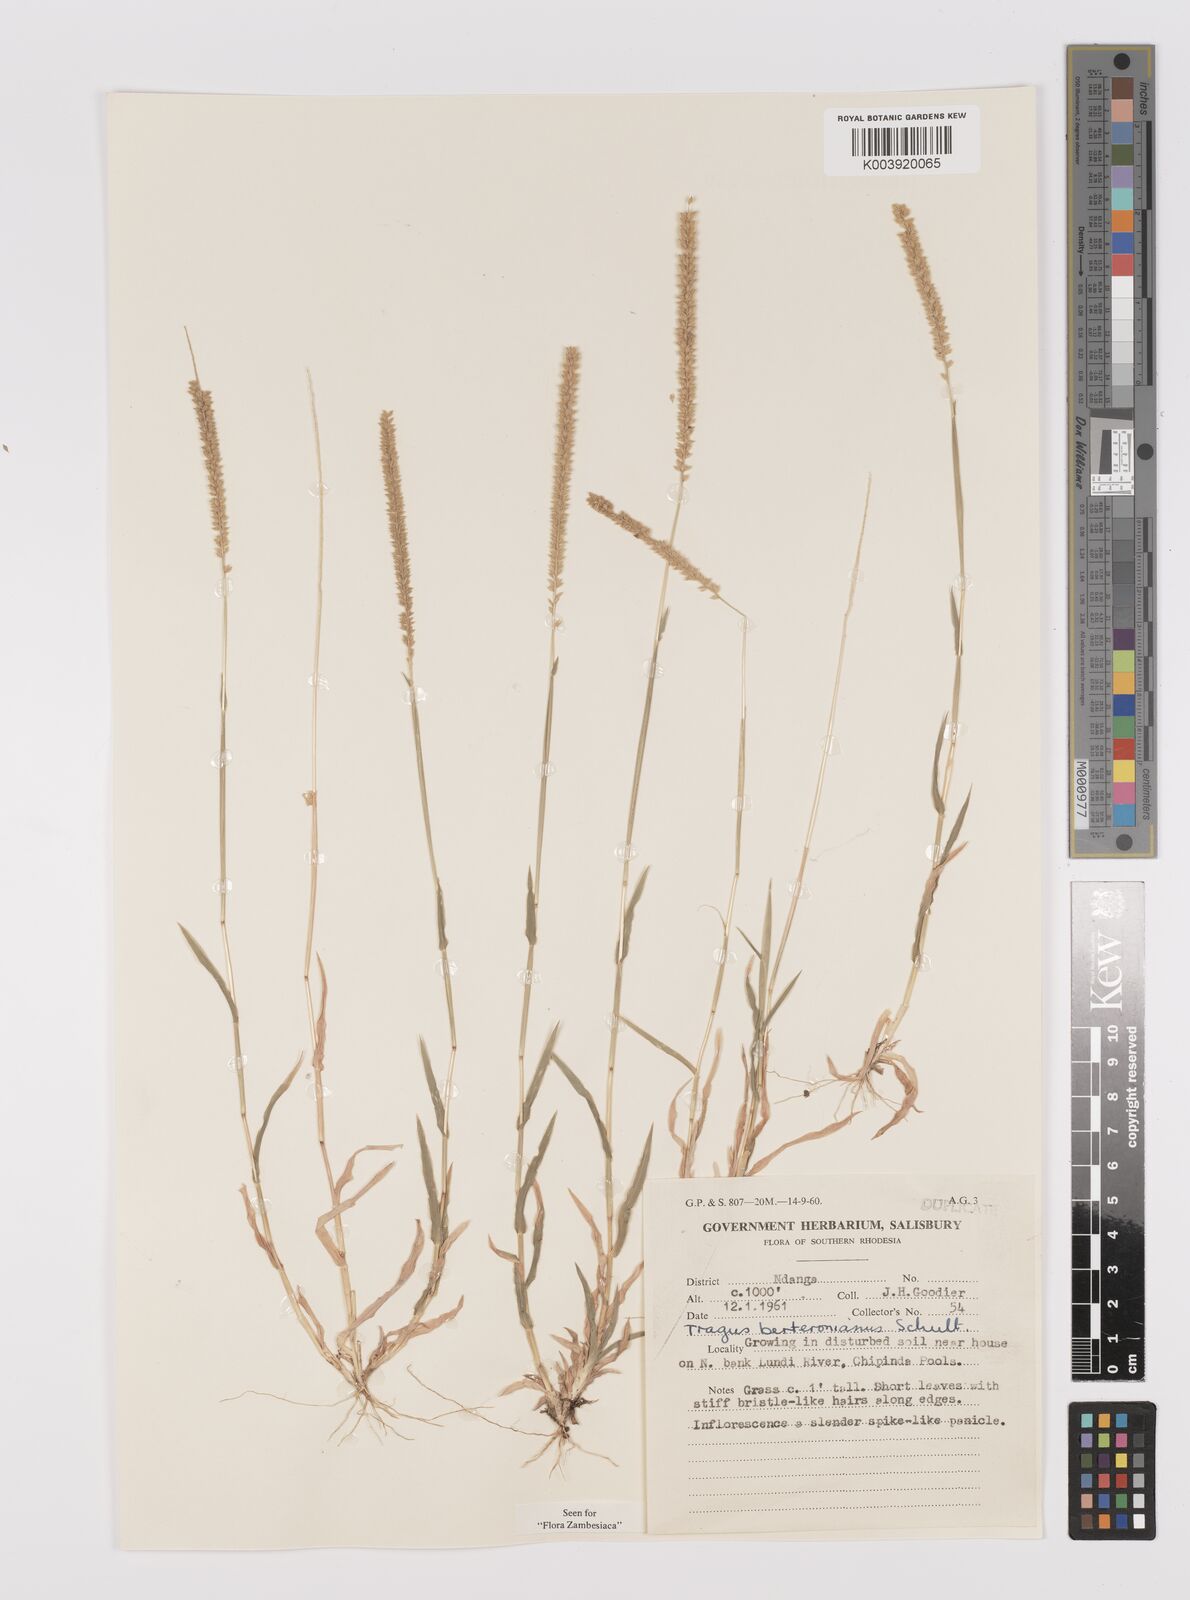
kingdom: Plantae
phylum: Tracheophyta
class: Liliopsida
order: Poales
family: Poaceae
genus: Tragus
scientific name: Tragus berteronianus
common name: African bur-grass
